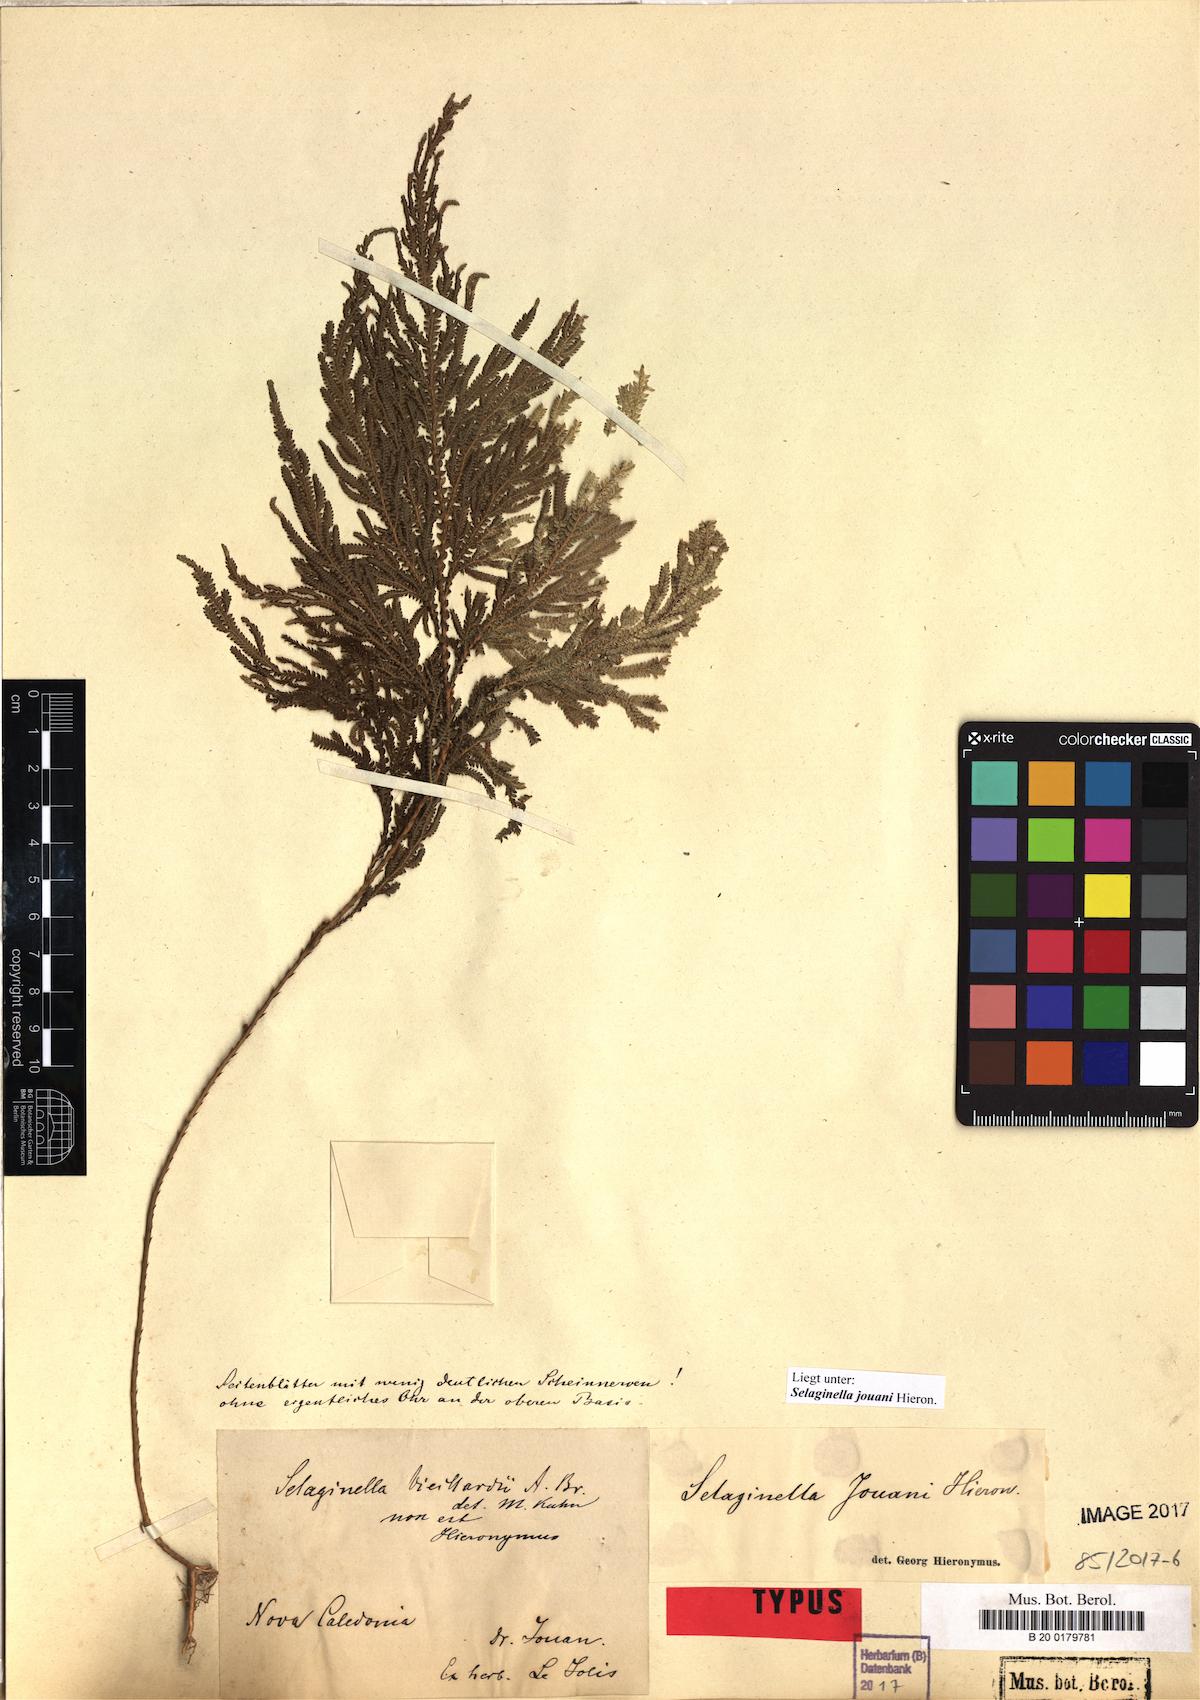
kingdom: Plantae
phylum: Tracheophyta
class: Lycopodiopsida
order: Selaginellales
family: Selaginellaceae
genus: Selaginella
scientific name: Selaginella firmuloides
